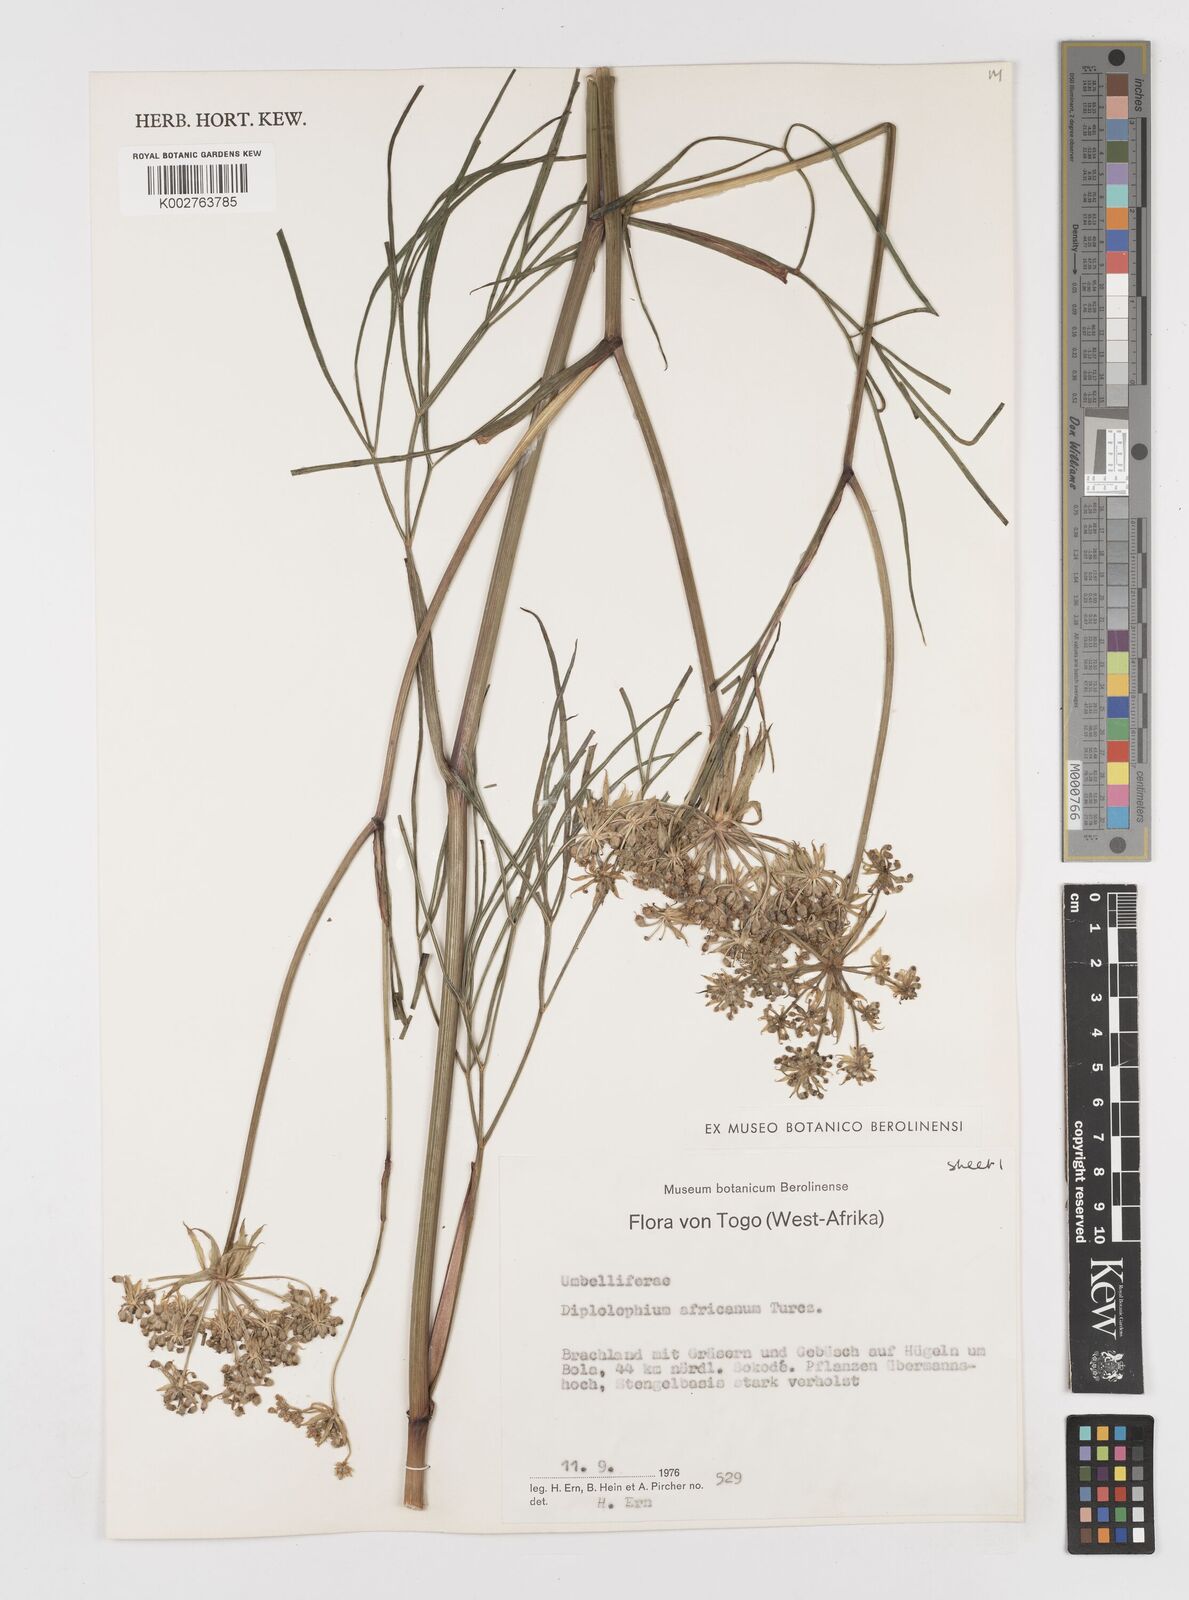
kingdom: Plantae
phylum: Tracheophyta
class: Magnoliopsida
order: Apiales
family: Apiaceae
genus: Diplolophium
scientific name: Diplolophium africanum
